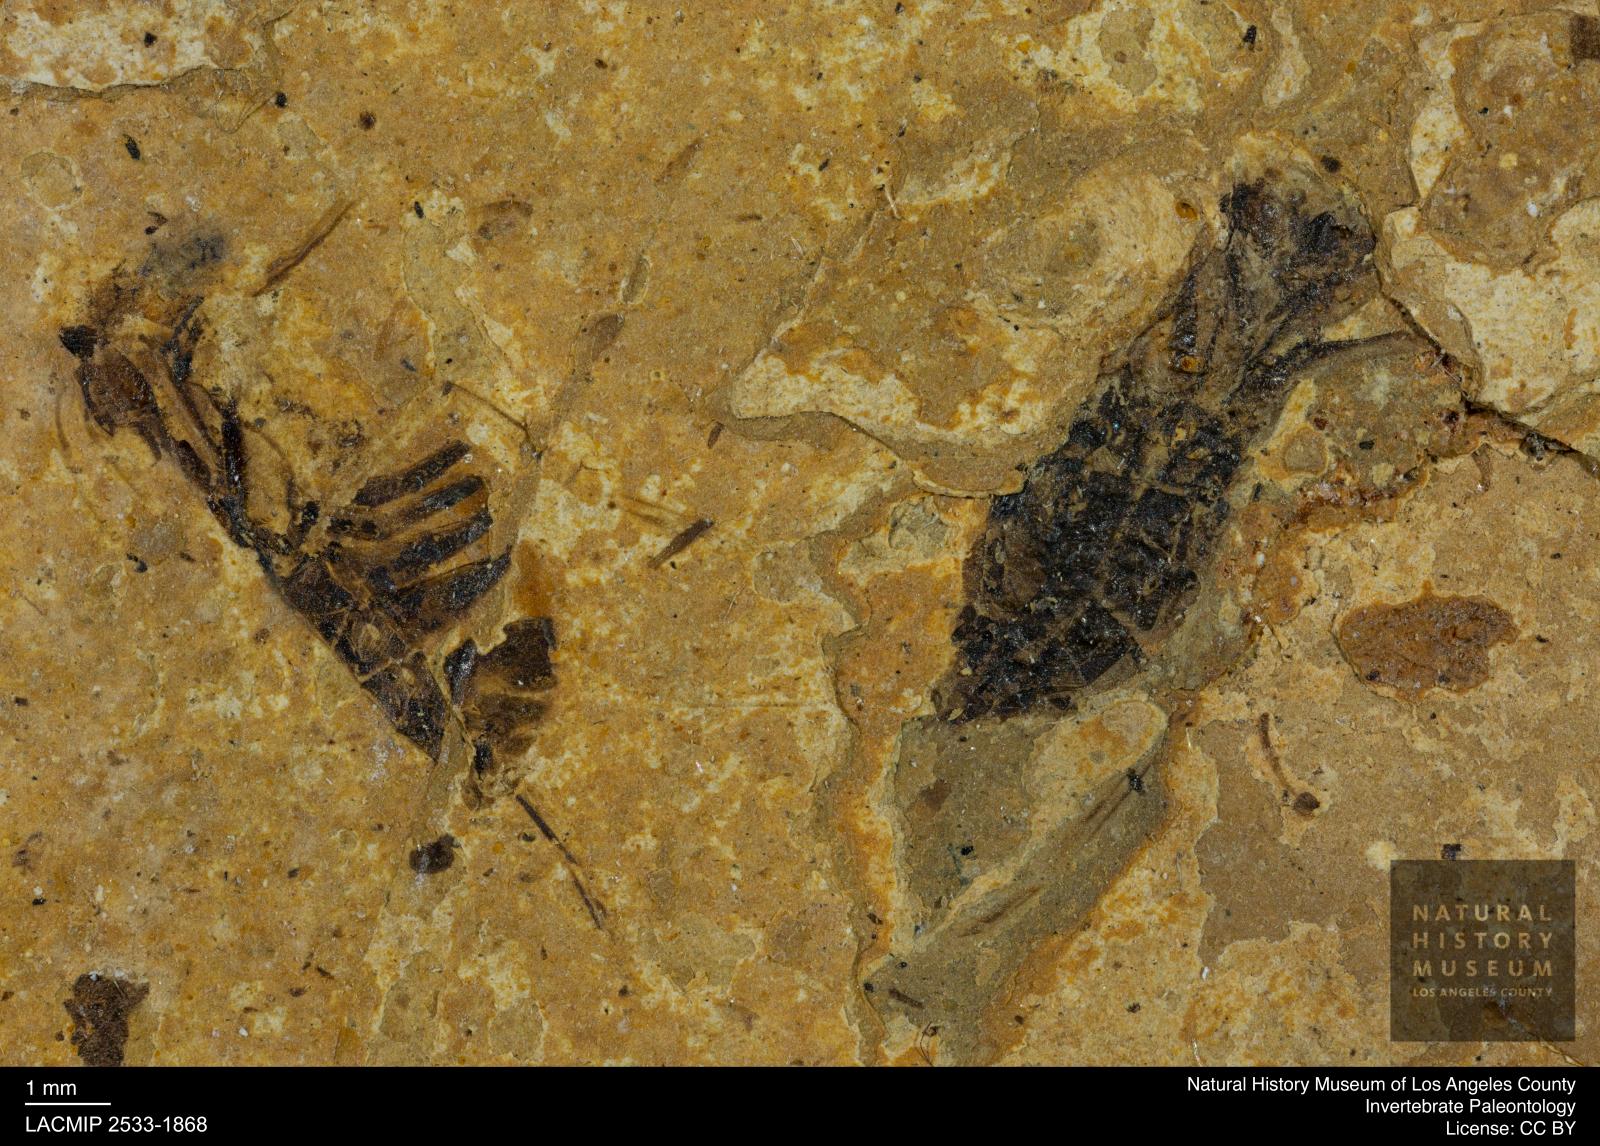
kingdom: Animalia
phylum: Arthropoda
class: Insecta
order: Hemiptera
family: Notonectidae
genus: Notonecta
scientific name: Notonecta
